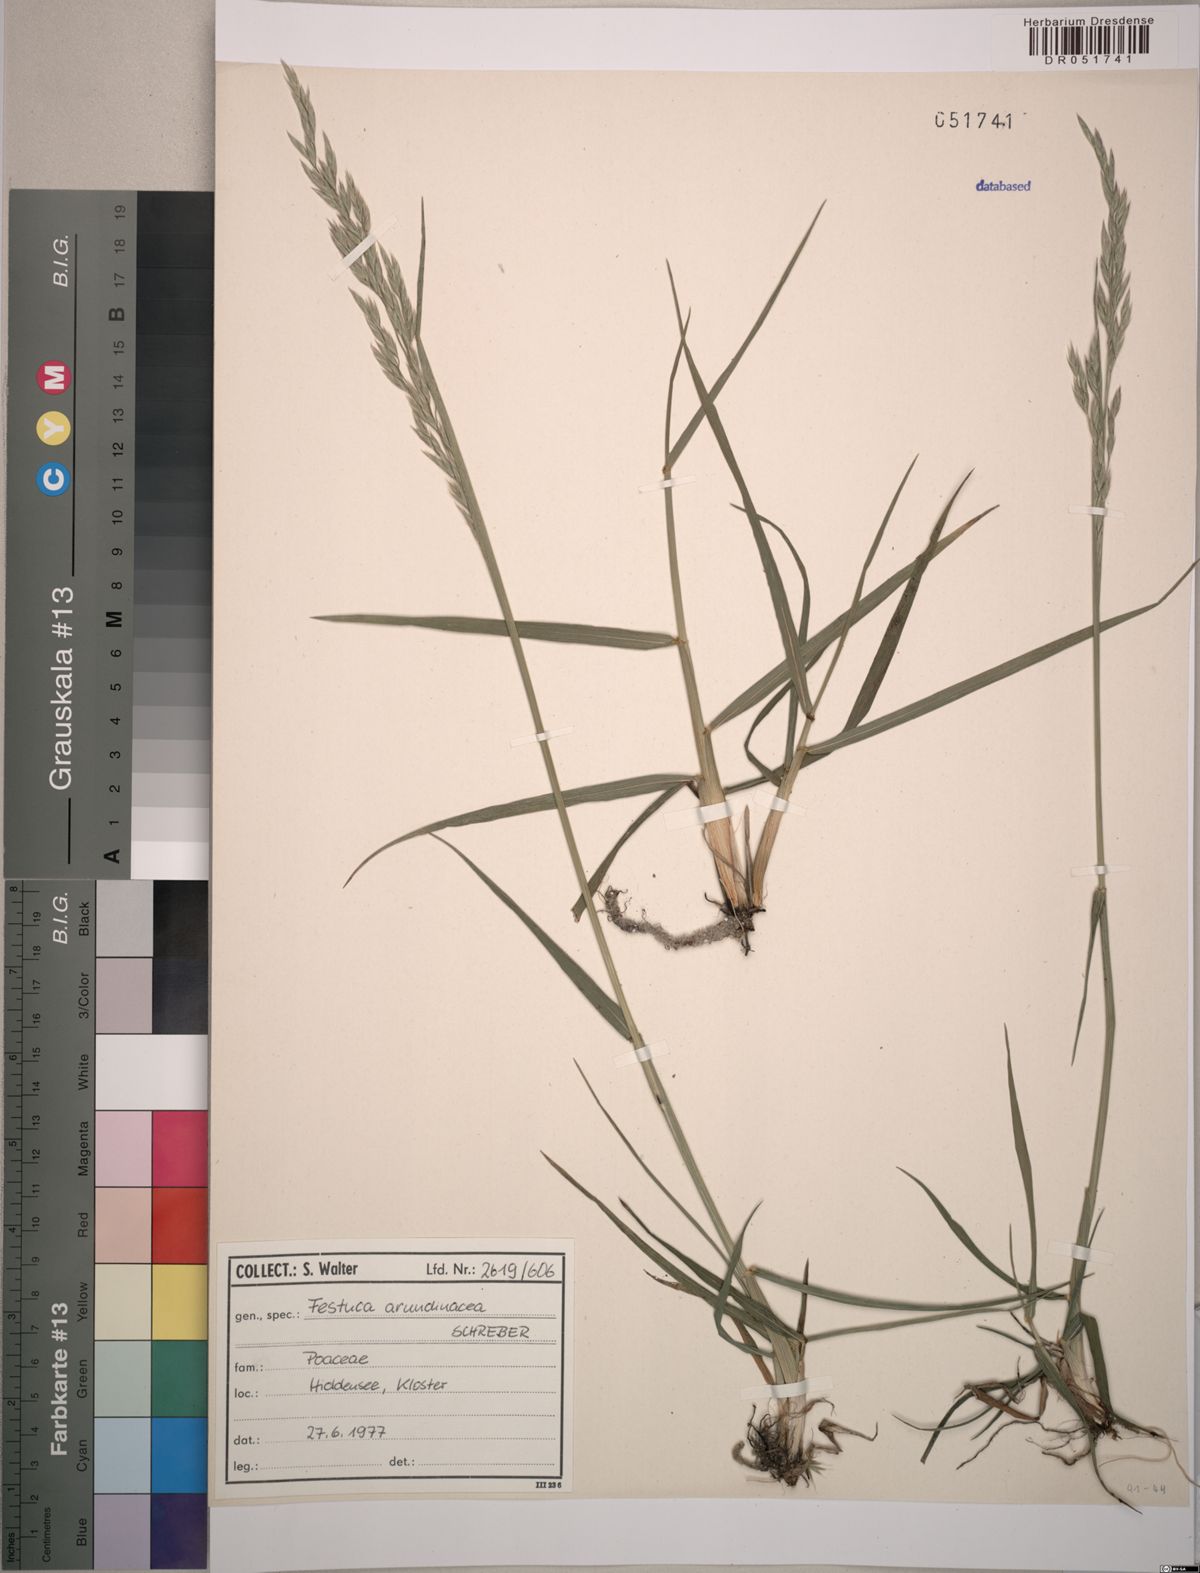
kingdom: Plantae
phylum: Tracheophyta
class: Liliopsida
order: Poales
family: Poaceae
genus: Lolium
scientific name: Lolium arundinaceum
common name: Reed fescue
